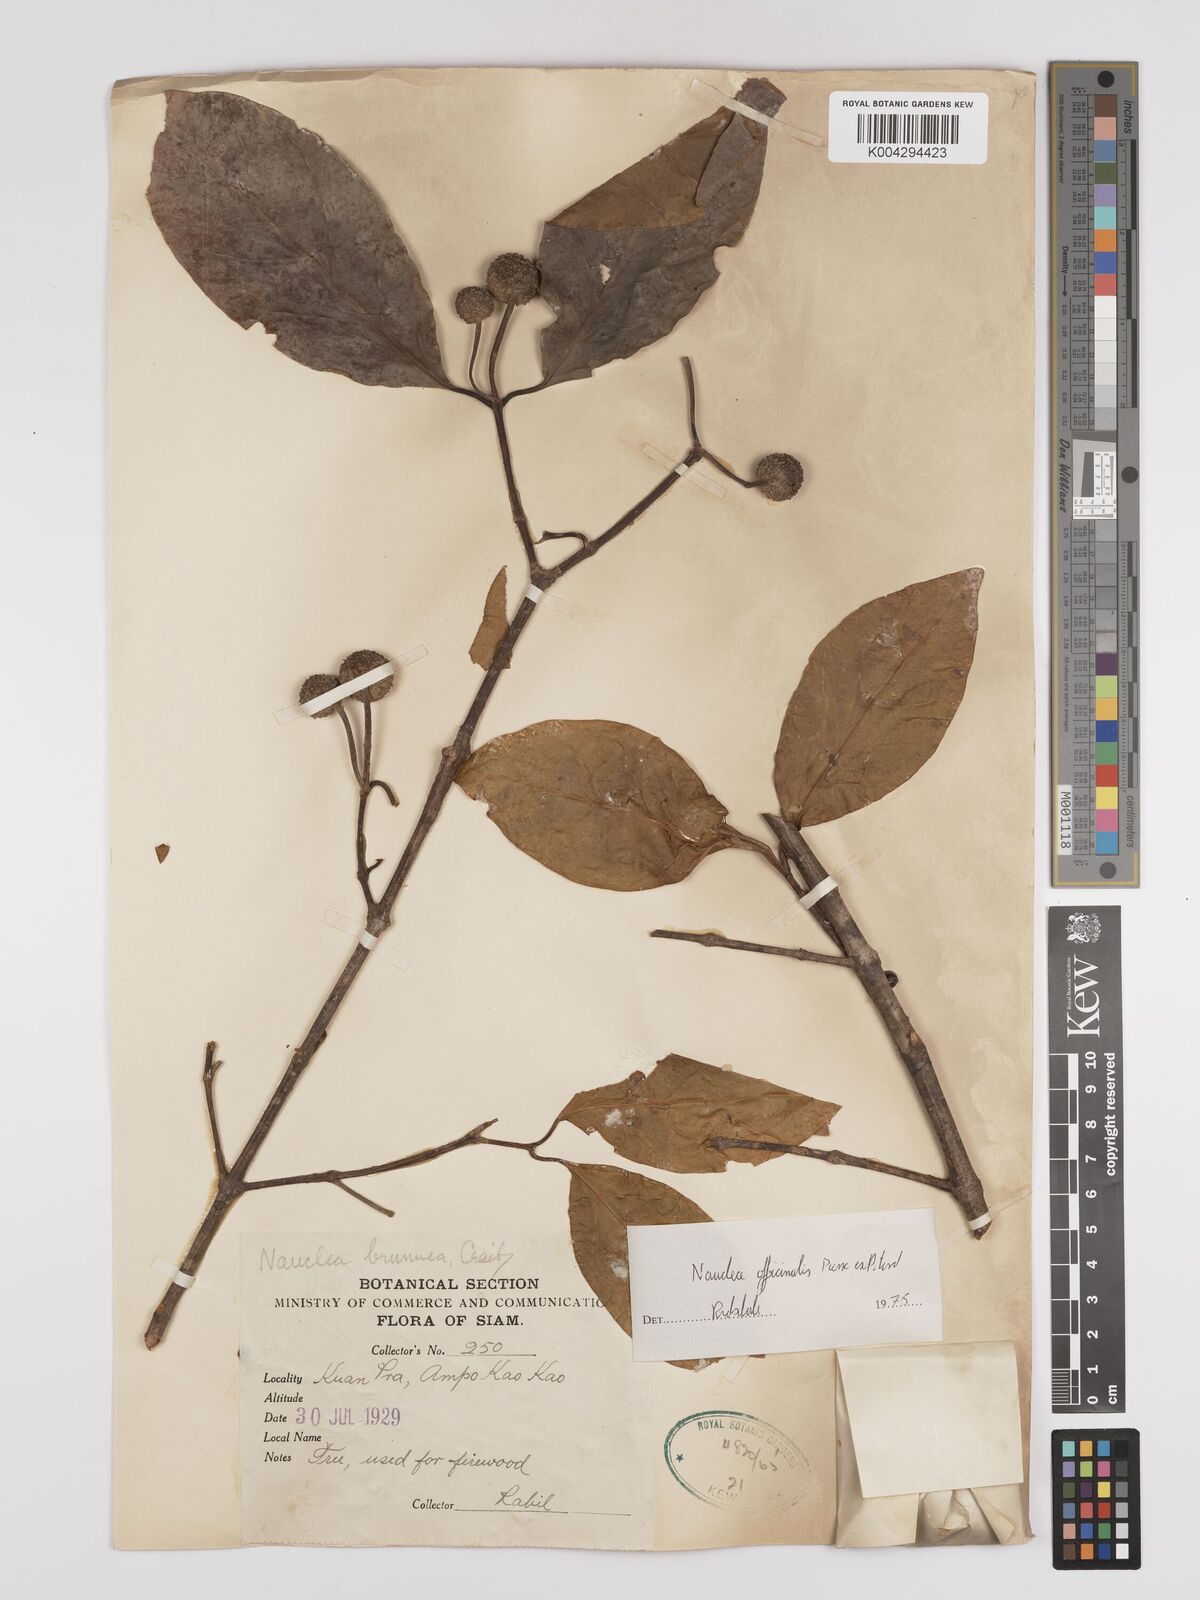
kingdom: Plantae
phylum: Tracheophyta
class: Magnoliopsida
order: Gentianales
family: Rubiaceae
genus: Nauclea
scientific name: Nauclea officinalis
